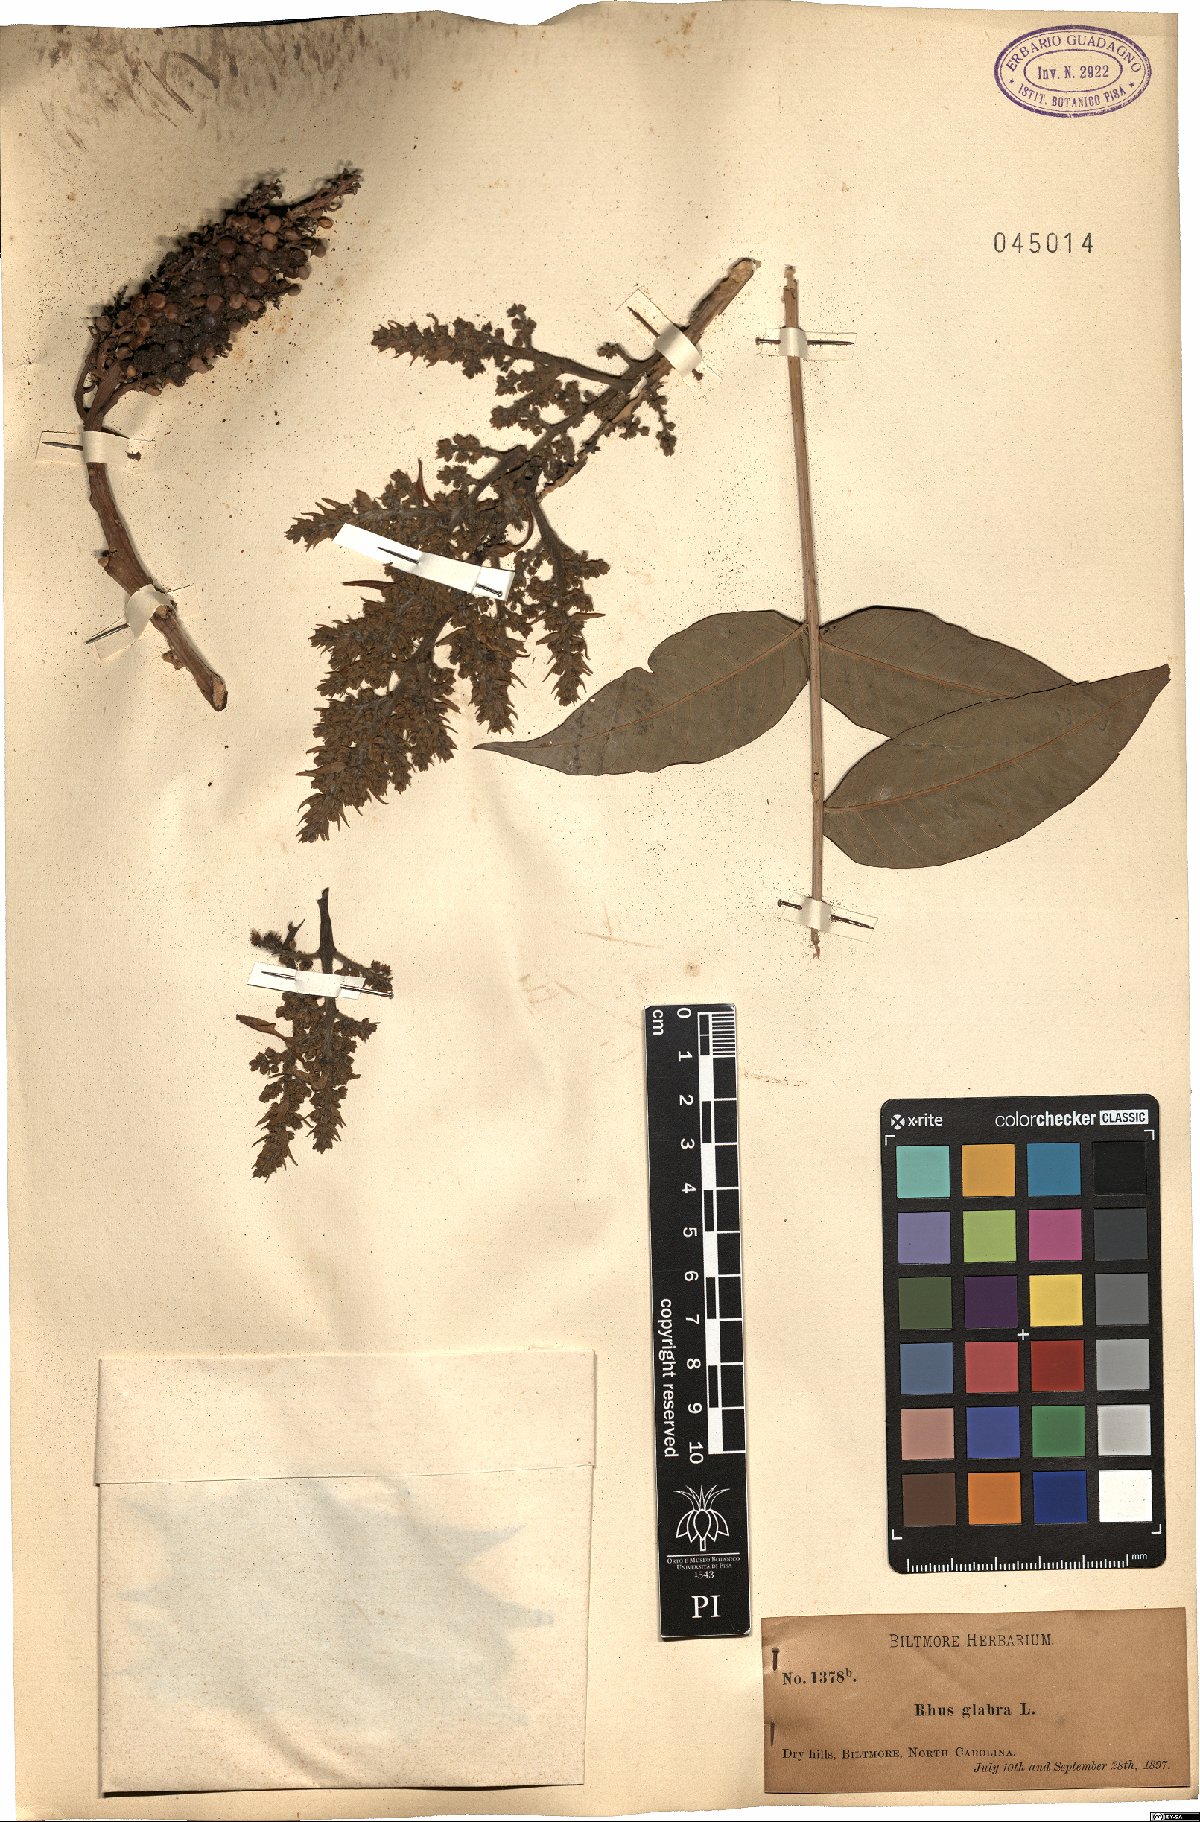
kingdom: Plantae
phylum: Tracheophyta
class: Magnoliopsida
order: Sapindales
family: Anacardiaceae
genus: Rhus
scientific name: Rhus glabra
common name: Scarlet sumac
